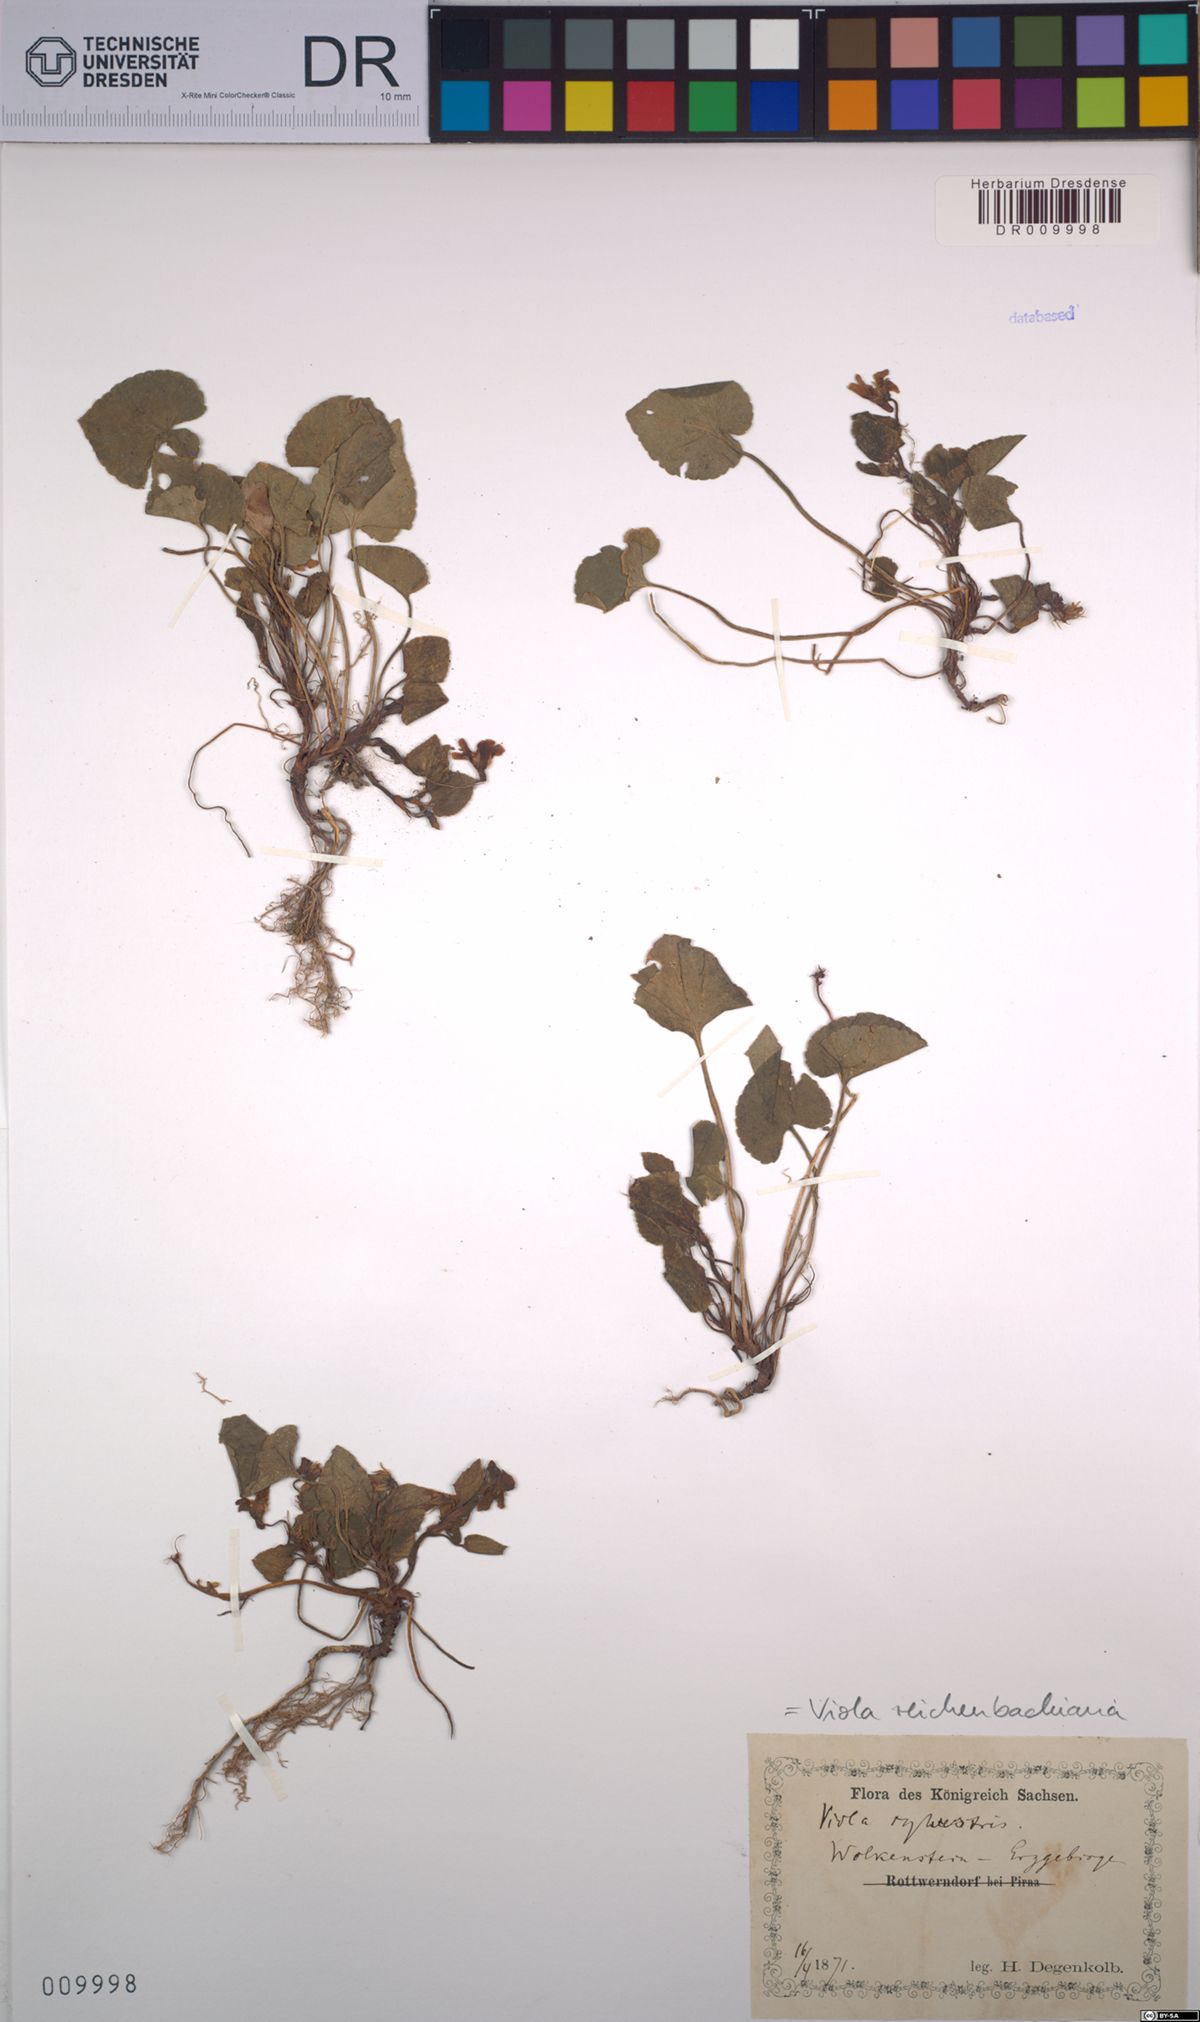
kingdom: Plantae
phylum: Tracheophyta
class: Magnoliopsida
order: Malpighiales
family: Violaceae
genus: Viola
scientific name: Viola reichenbachiana
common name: Early dog-violet
